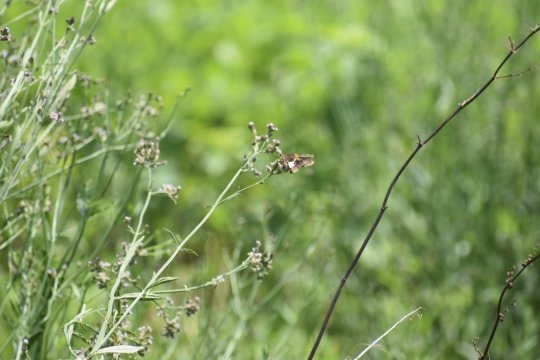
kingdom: Animalia
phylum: Arthropoda
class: Insecta
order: Lepidoptera
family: Hesperiidae
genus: Epargyreus
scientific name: Epargyreus clarus
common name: Silver-spotted Skipper
